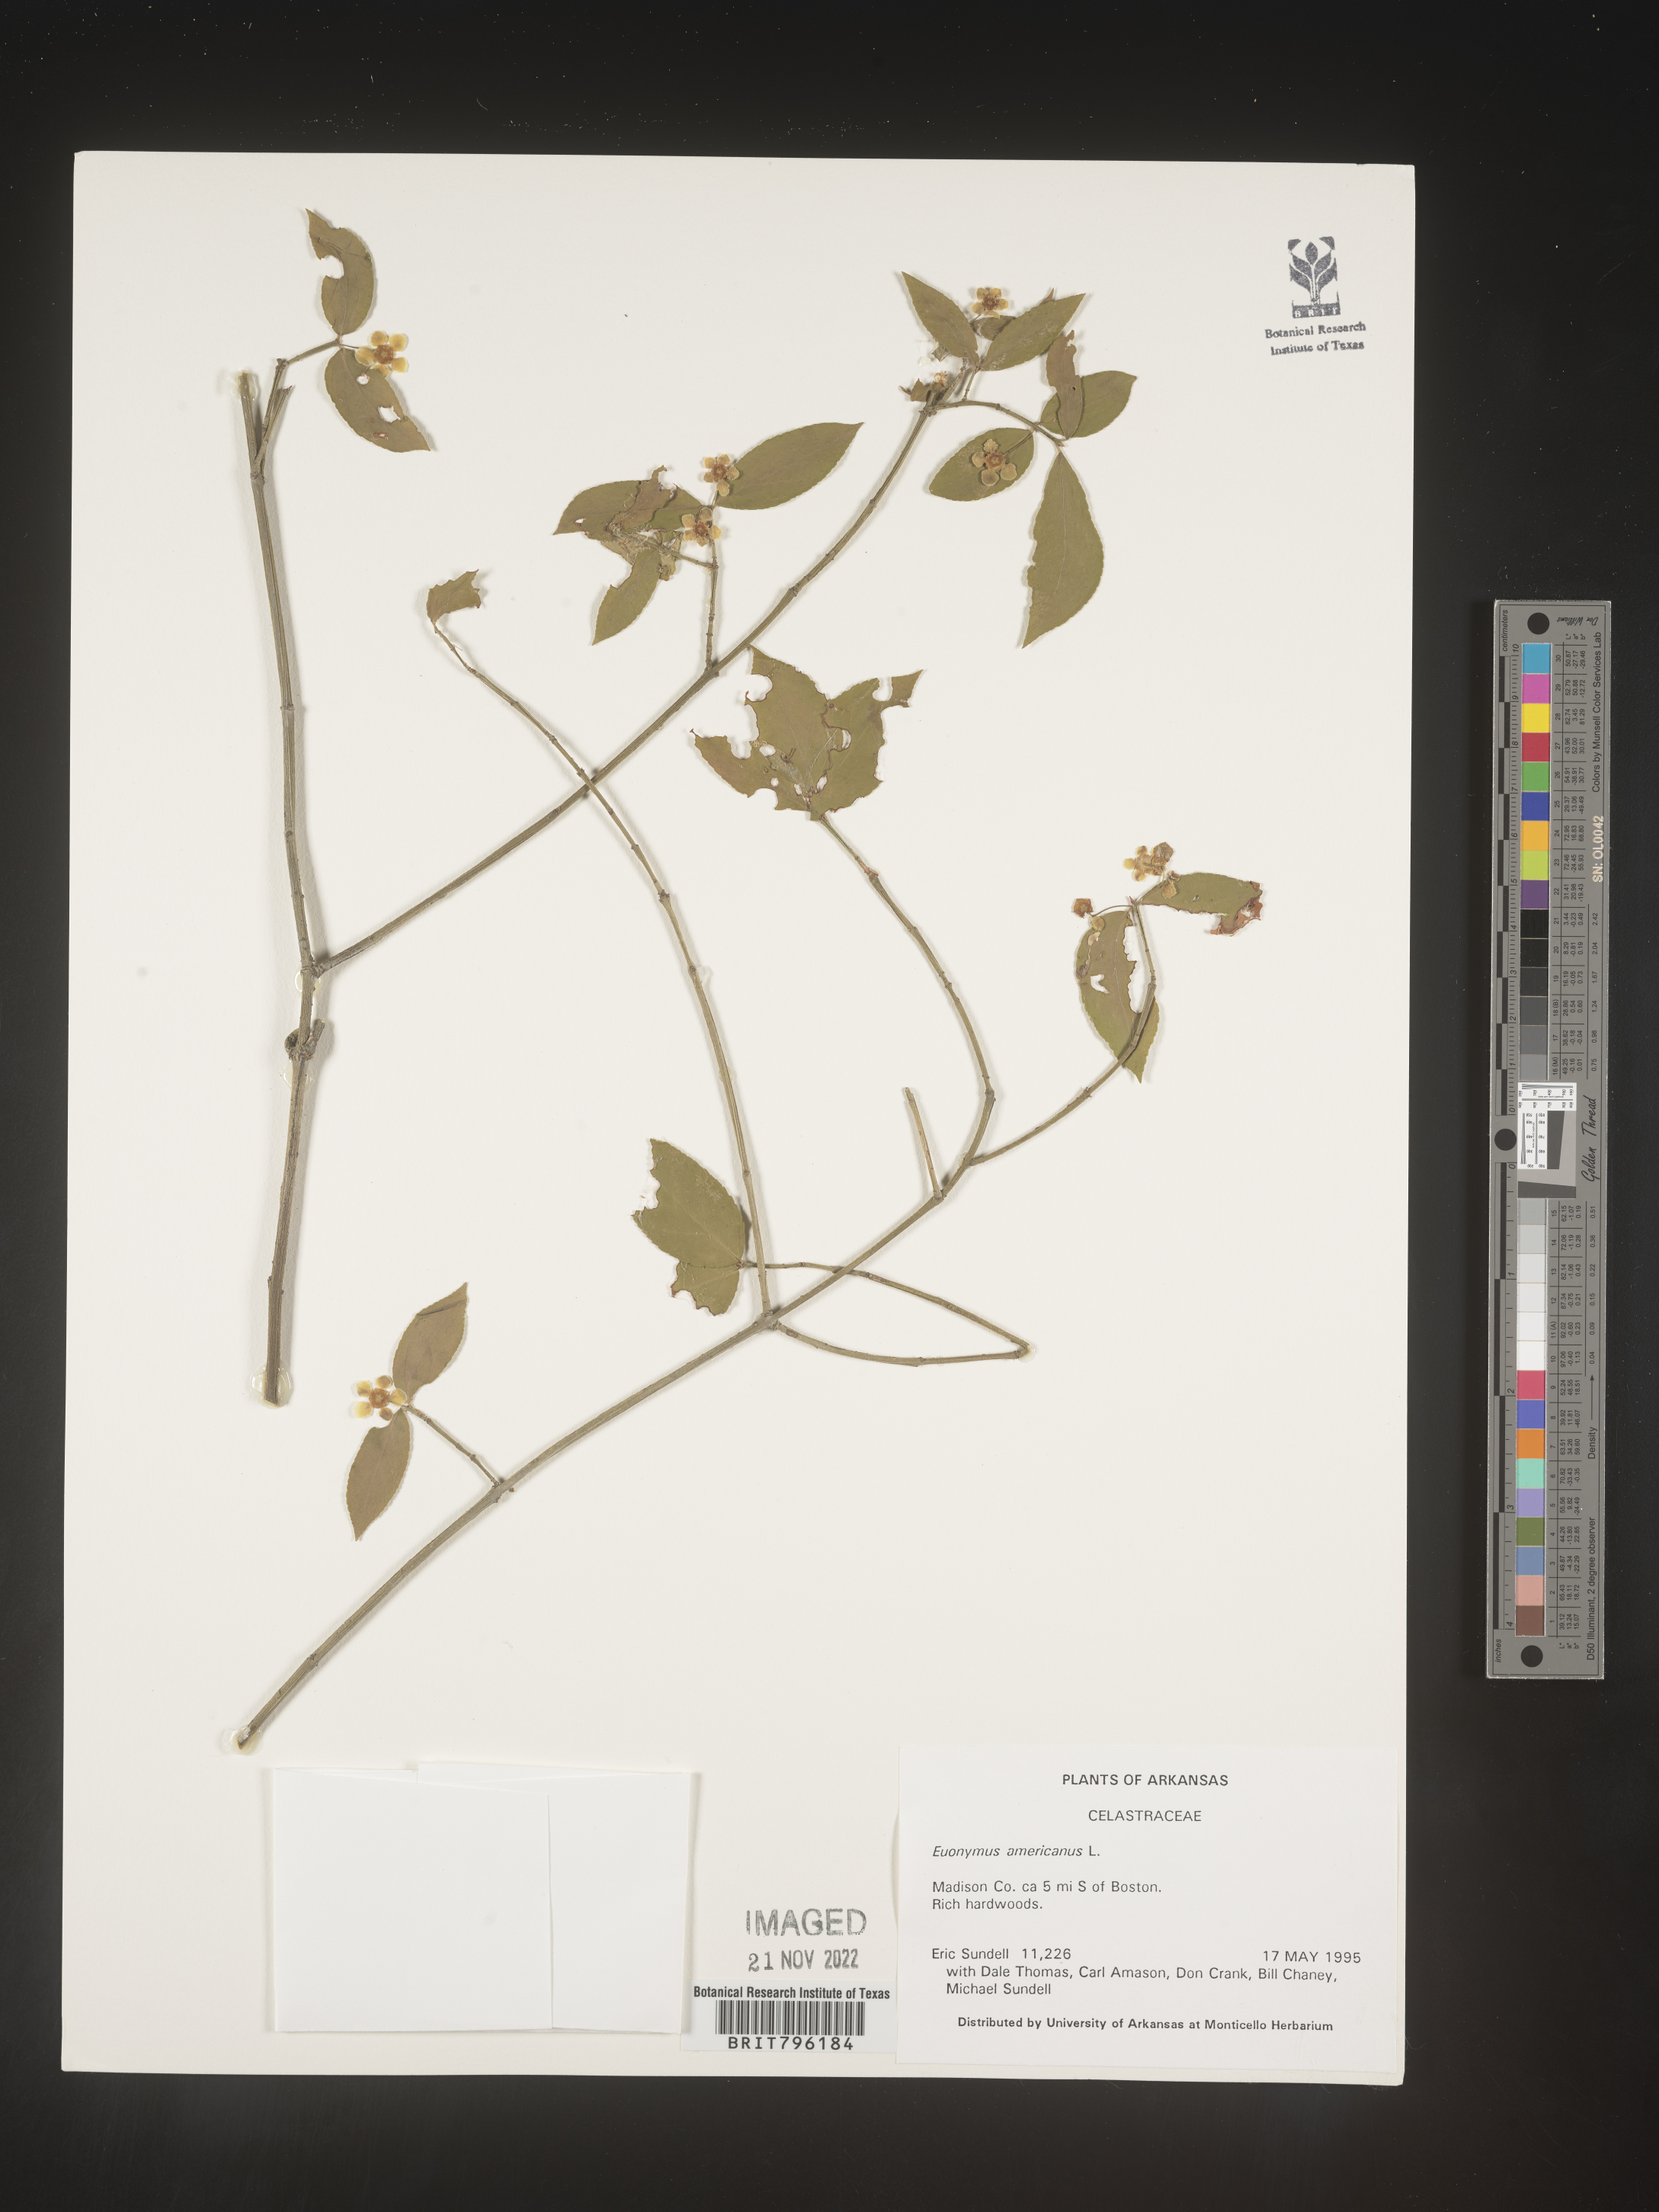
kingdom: Plantae
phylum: Tracheophyta
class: Magnoliopsida
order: Celastrales
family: Celastraceae
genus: Euonymus
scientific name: Euonymus americanus
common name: Bursting-heart
